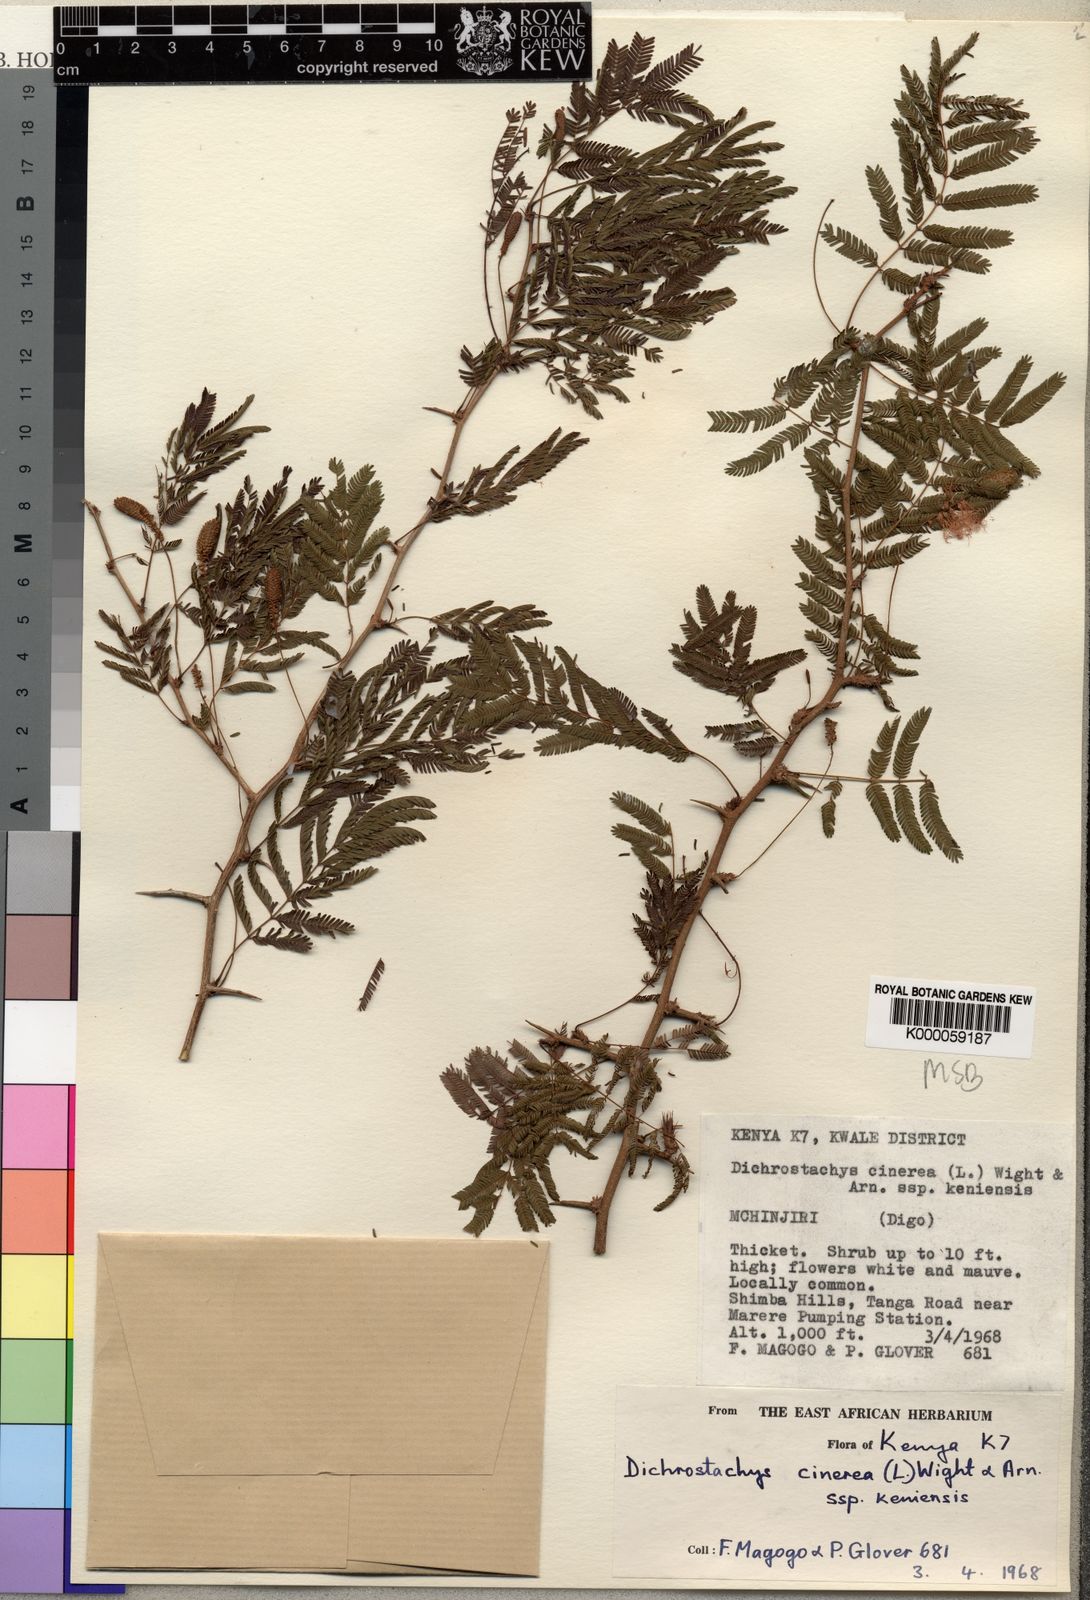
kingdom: Plantae
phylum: Tracheophyta
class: Magnoliopsida
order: Fabales
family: Fabaceae
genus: Dichrostachys
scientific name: Dichrostachys cinerea
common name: Sicklebush
